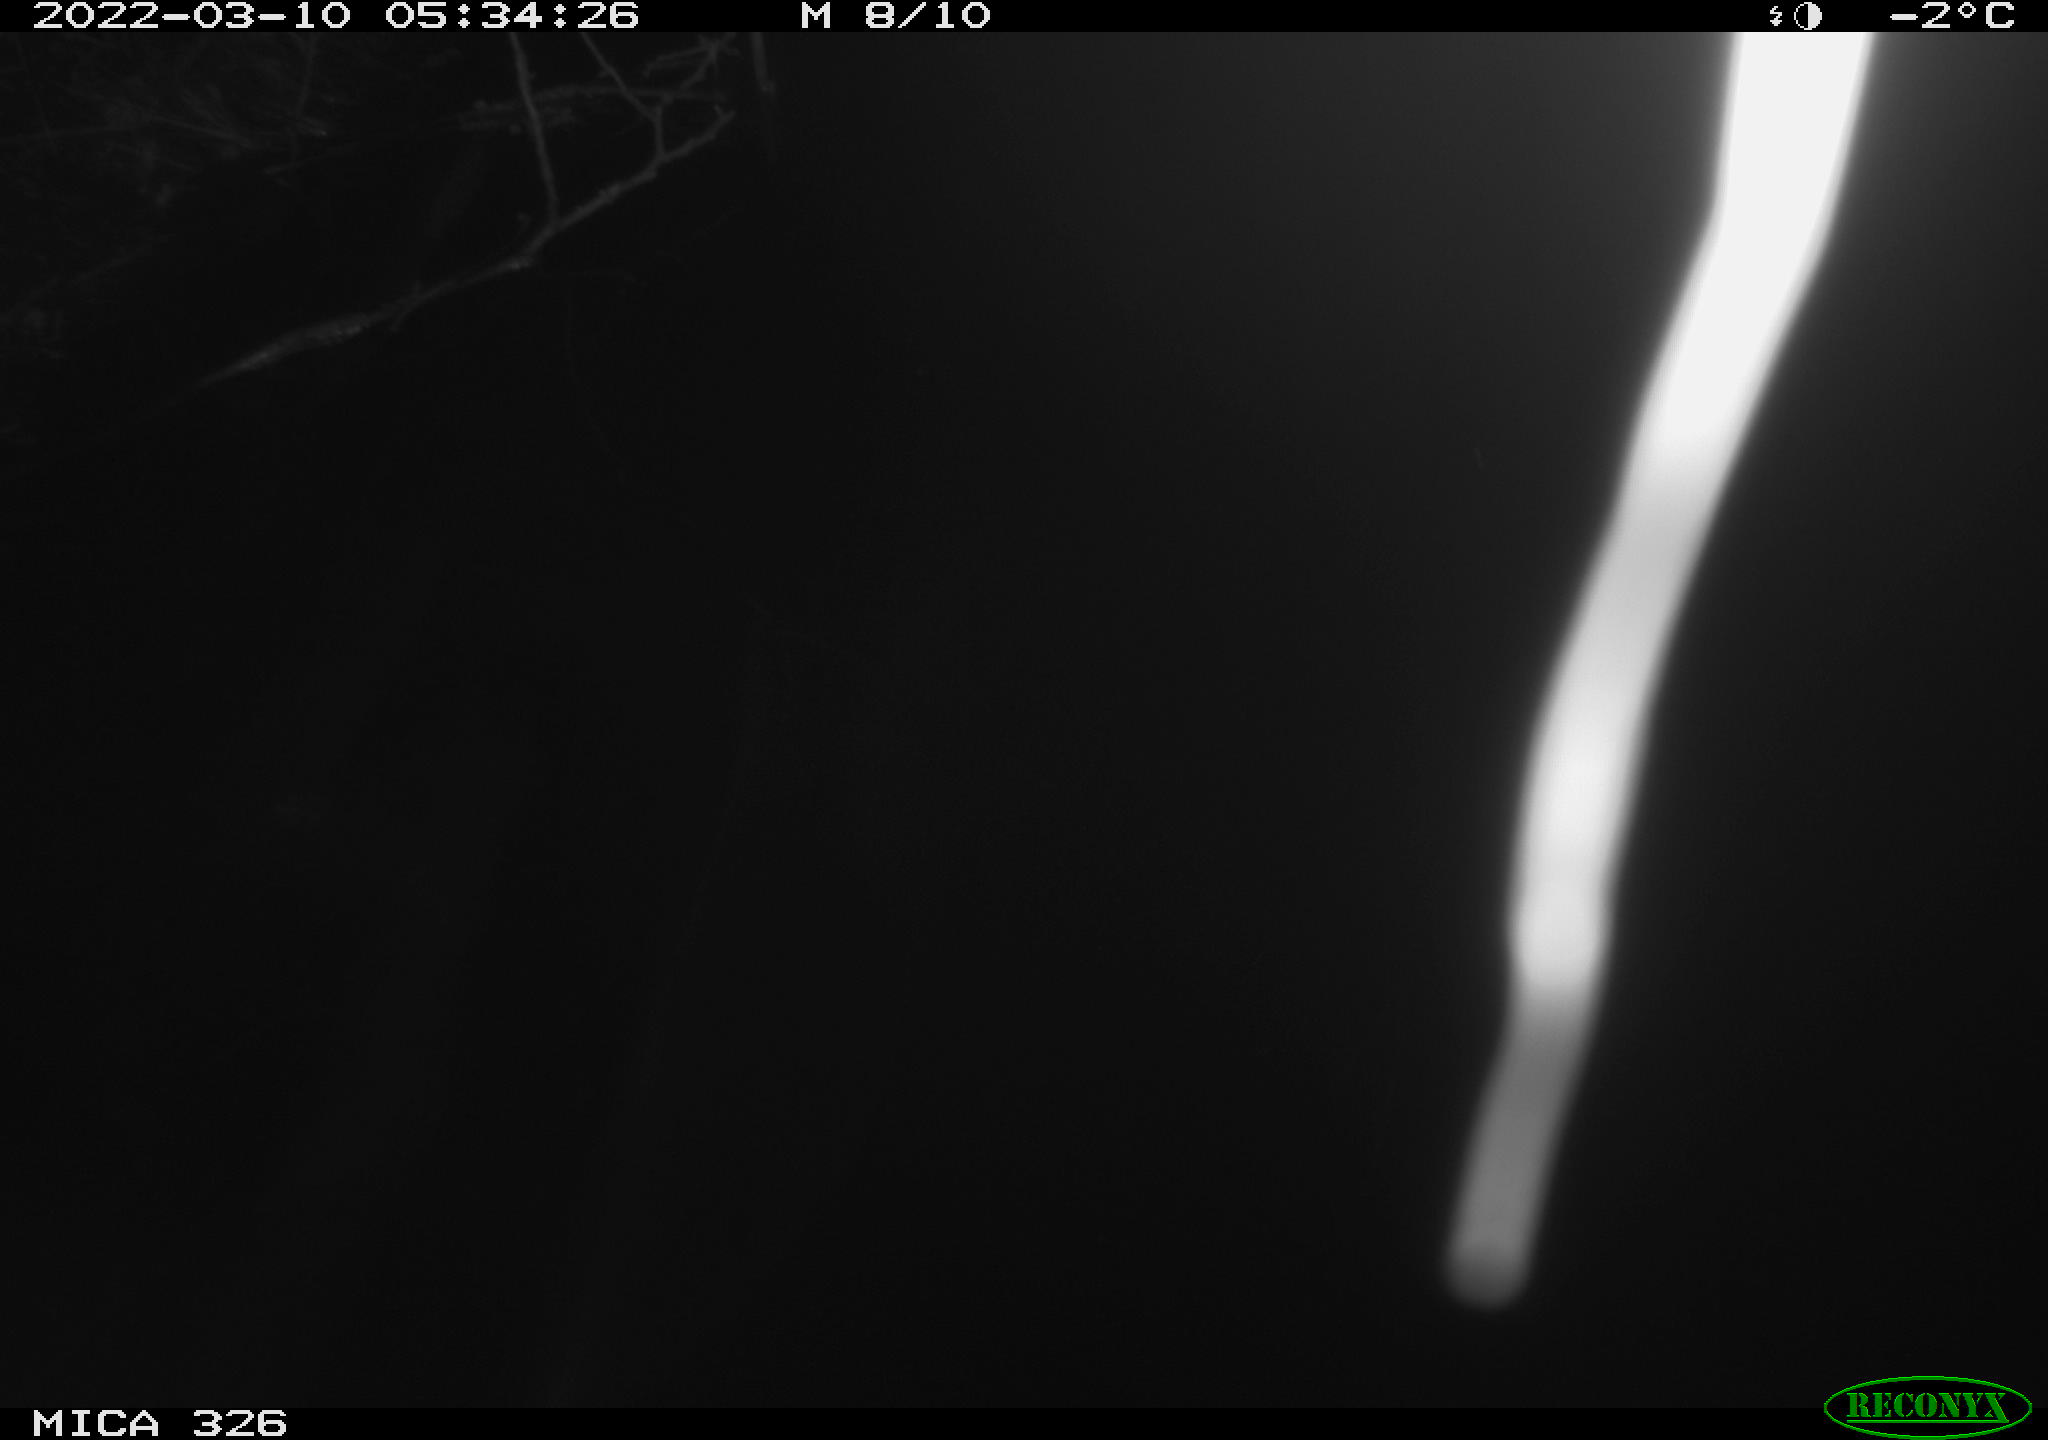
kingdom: Animalia
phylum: Chordata
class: Mammalia
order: Rodentia
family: Muridae
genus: Rattus
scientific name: Rattus norvegicus
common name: Brown rat
